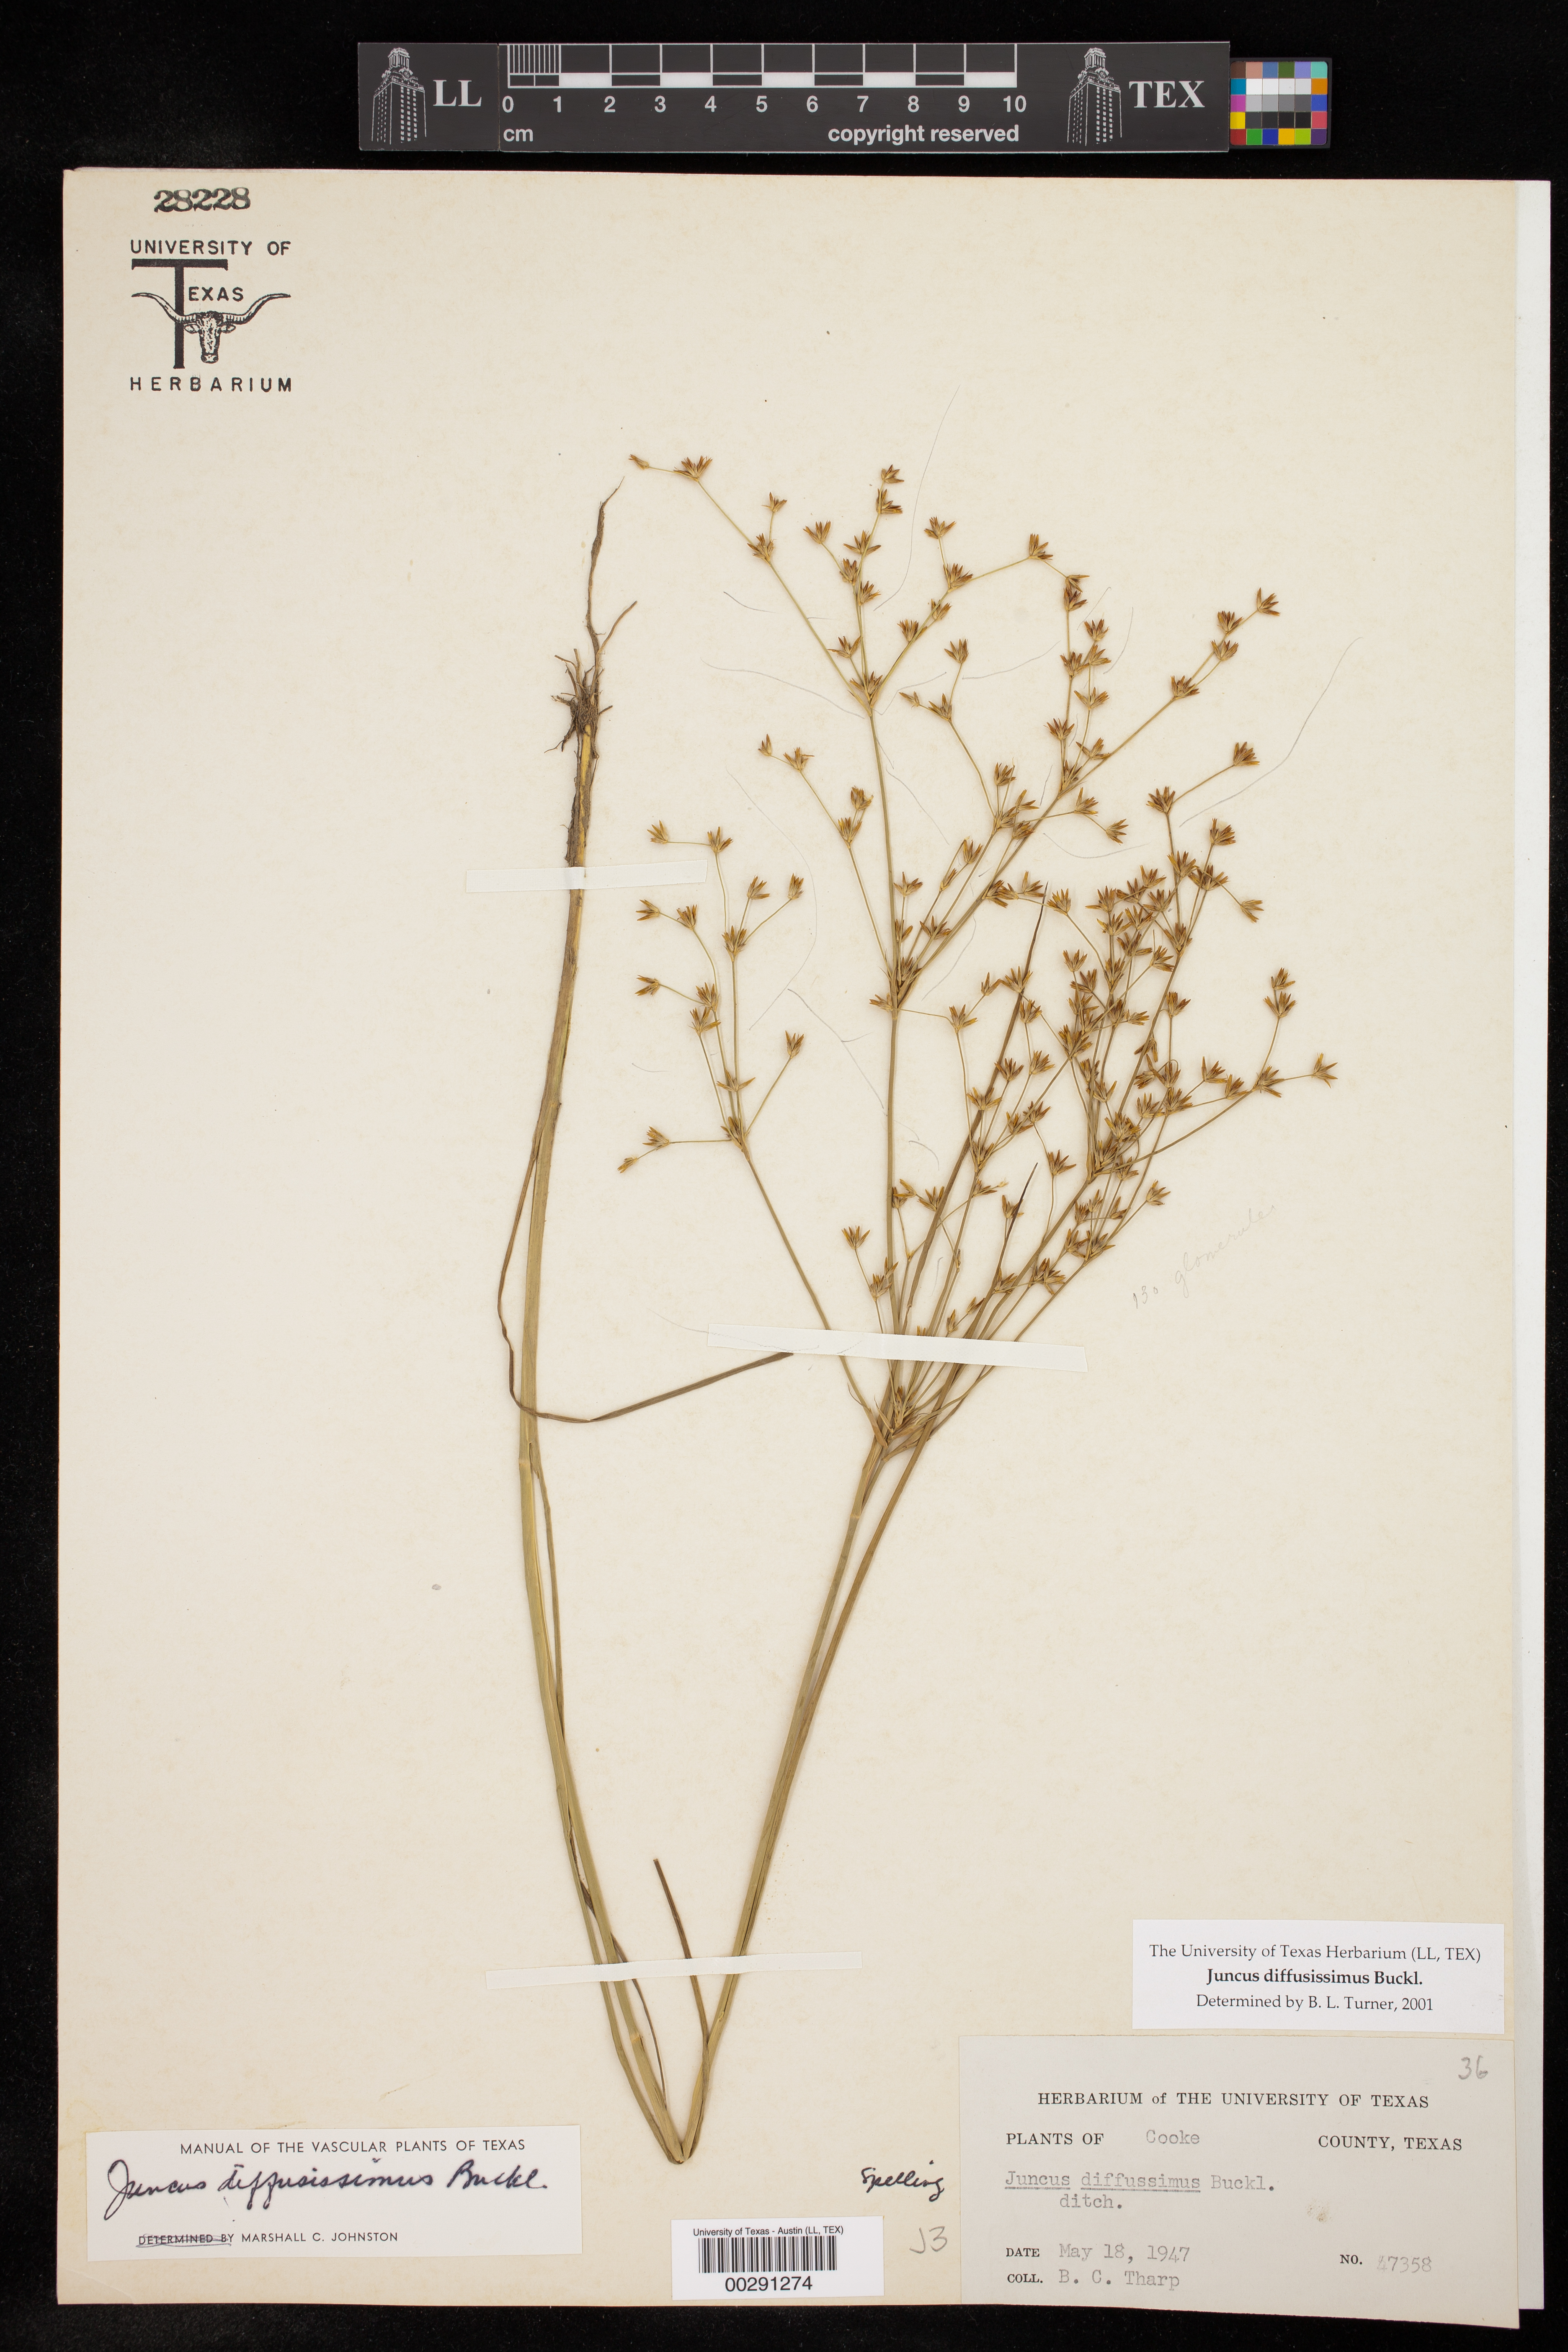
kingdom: Plantae
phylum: Tracheophyta
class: Liliopsida
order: Poales
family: Juncaceae
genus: Juncus
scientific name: Juncus diffusissimus
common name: Slimpod rush
